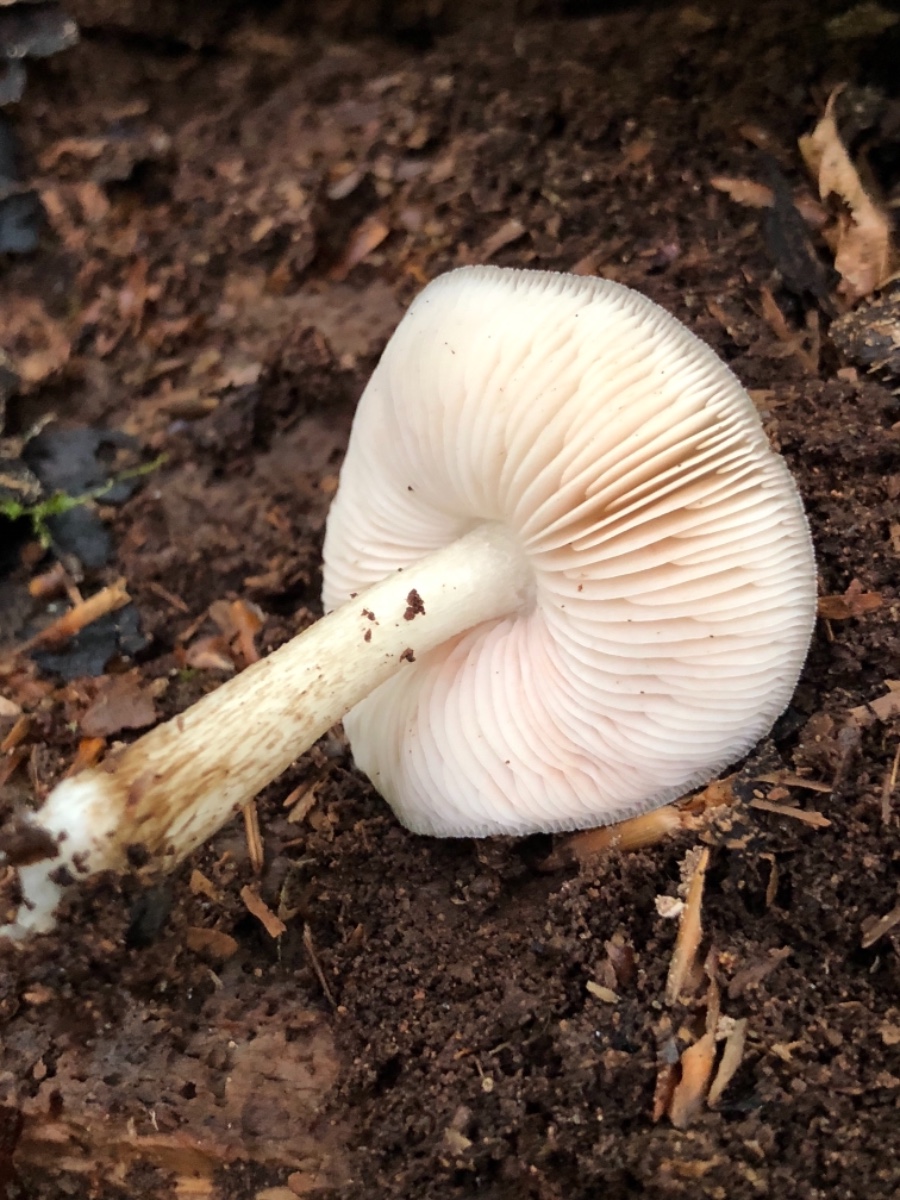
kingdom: Fungi
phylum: Basidiomycota
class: Agaricomycetes
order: Agaricales
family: Pluteaceae
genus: Pluteus
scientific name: Pluteus cervinus
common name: sodfarvet skærmhat
